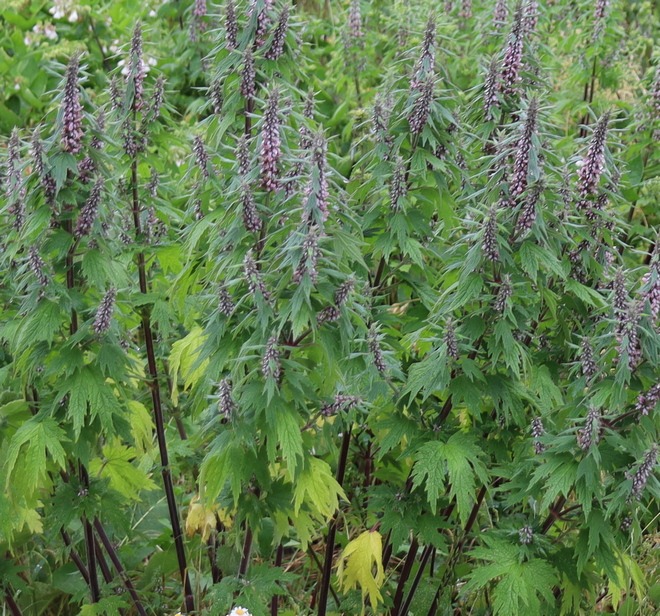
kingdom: Plantae
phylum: Tracheophyta
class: Magnoliopsida
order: Lamiales
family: Lamiaceae
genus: Leonurus
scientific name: Leonurus cardiaca
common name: Hjertespand
